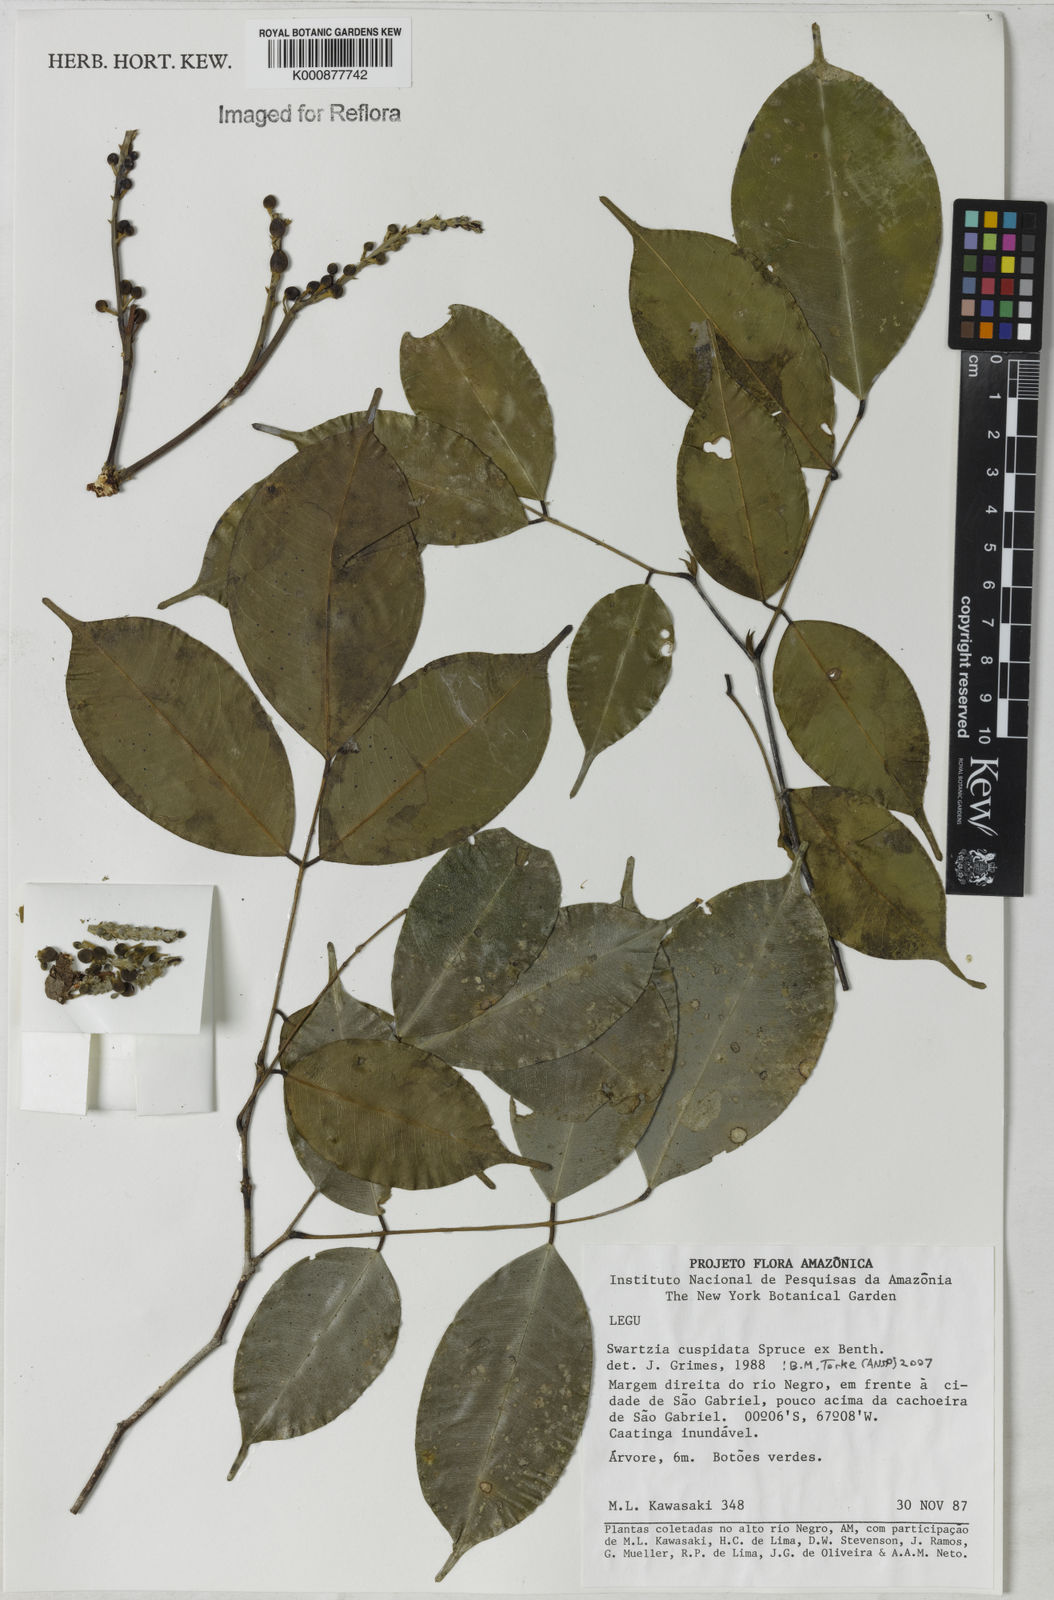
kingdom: Plantae
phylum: Tracheophyta
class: Magnoliopsida
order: Fabales
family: Fabaceae
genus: Swartzia
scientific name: Swartzia cuspidata
